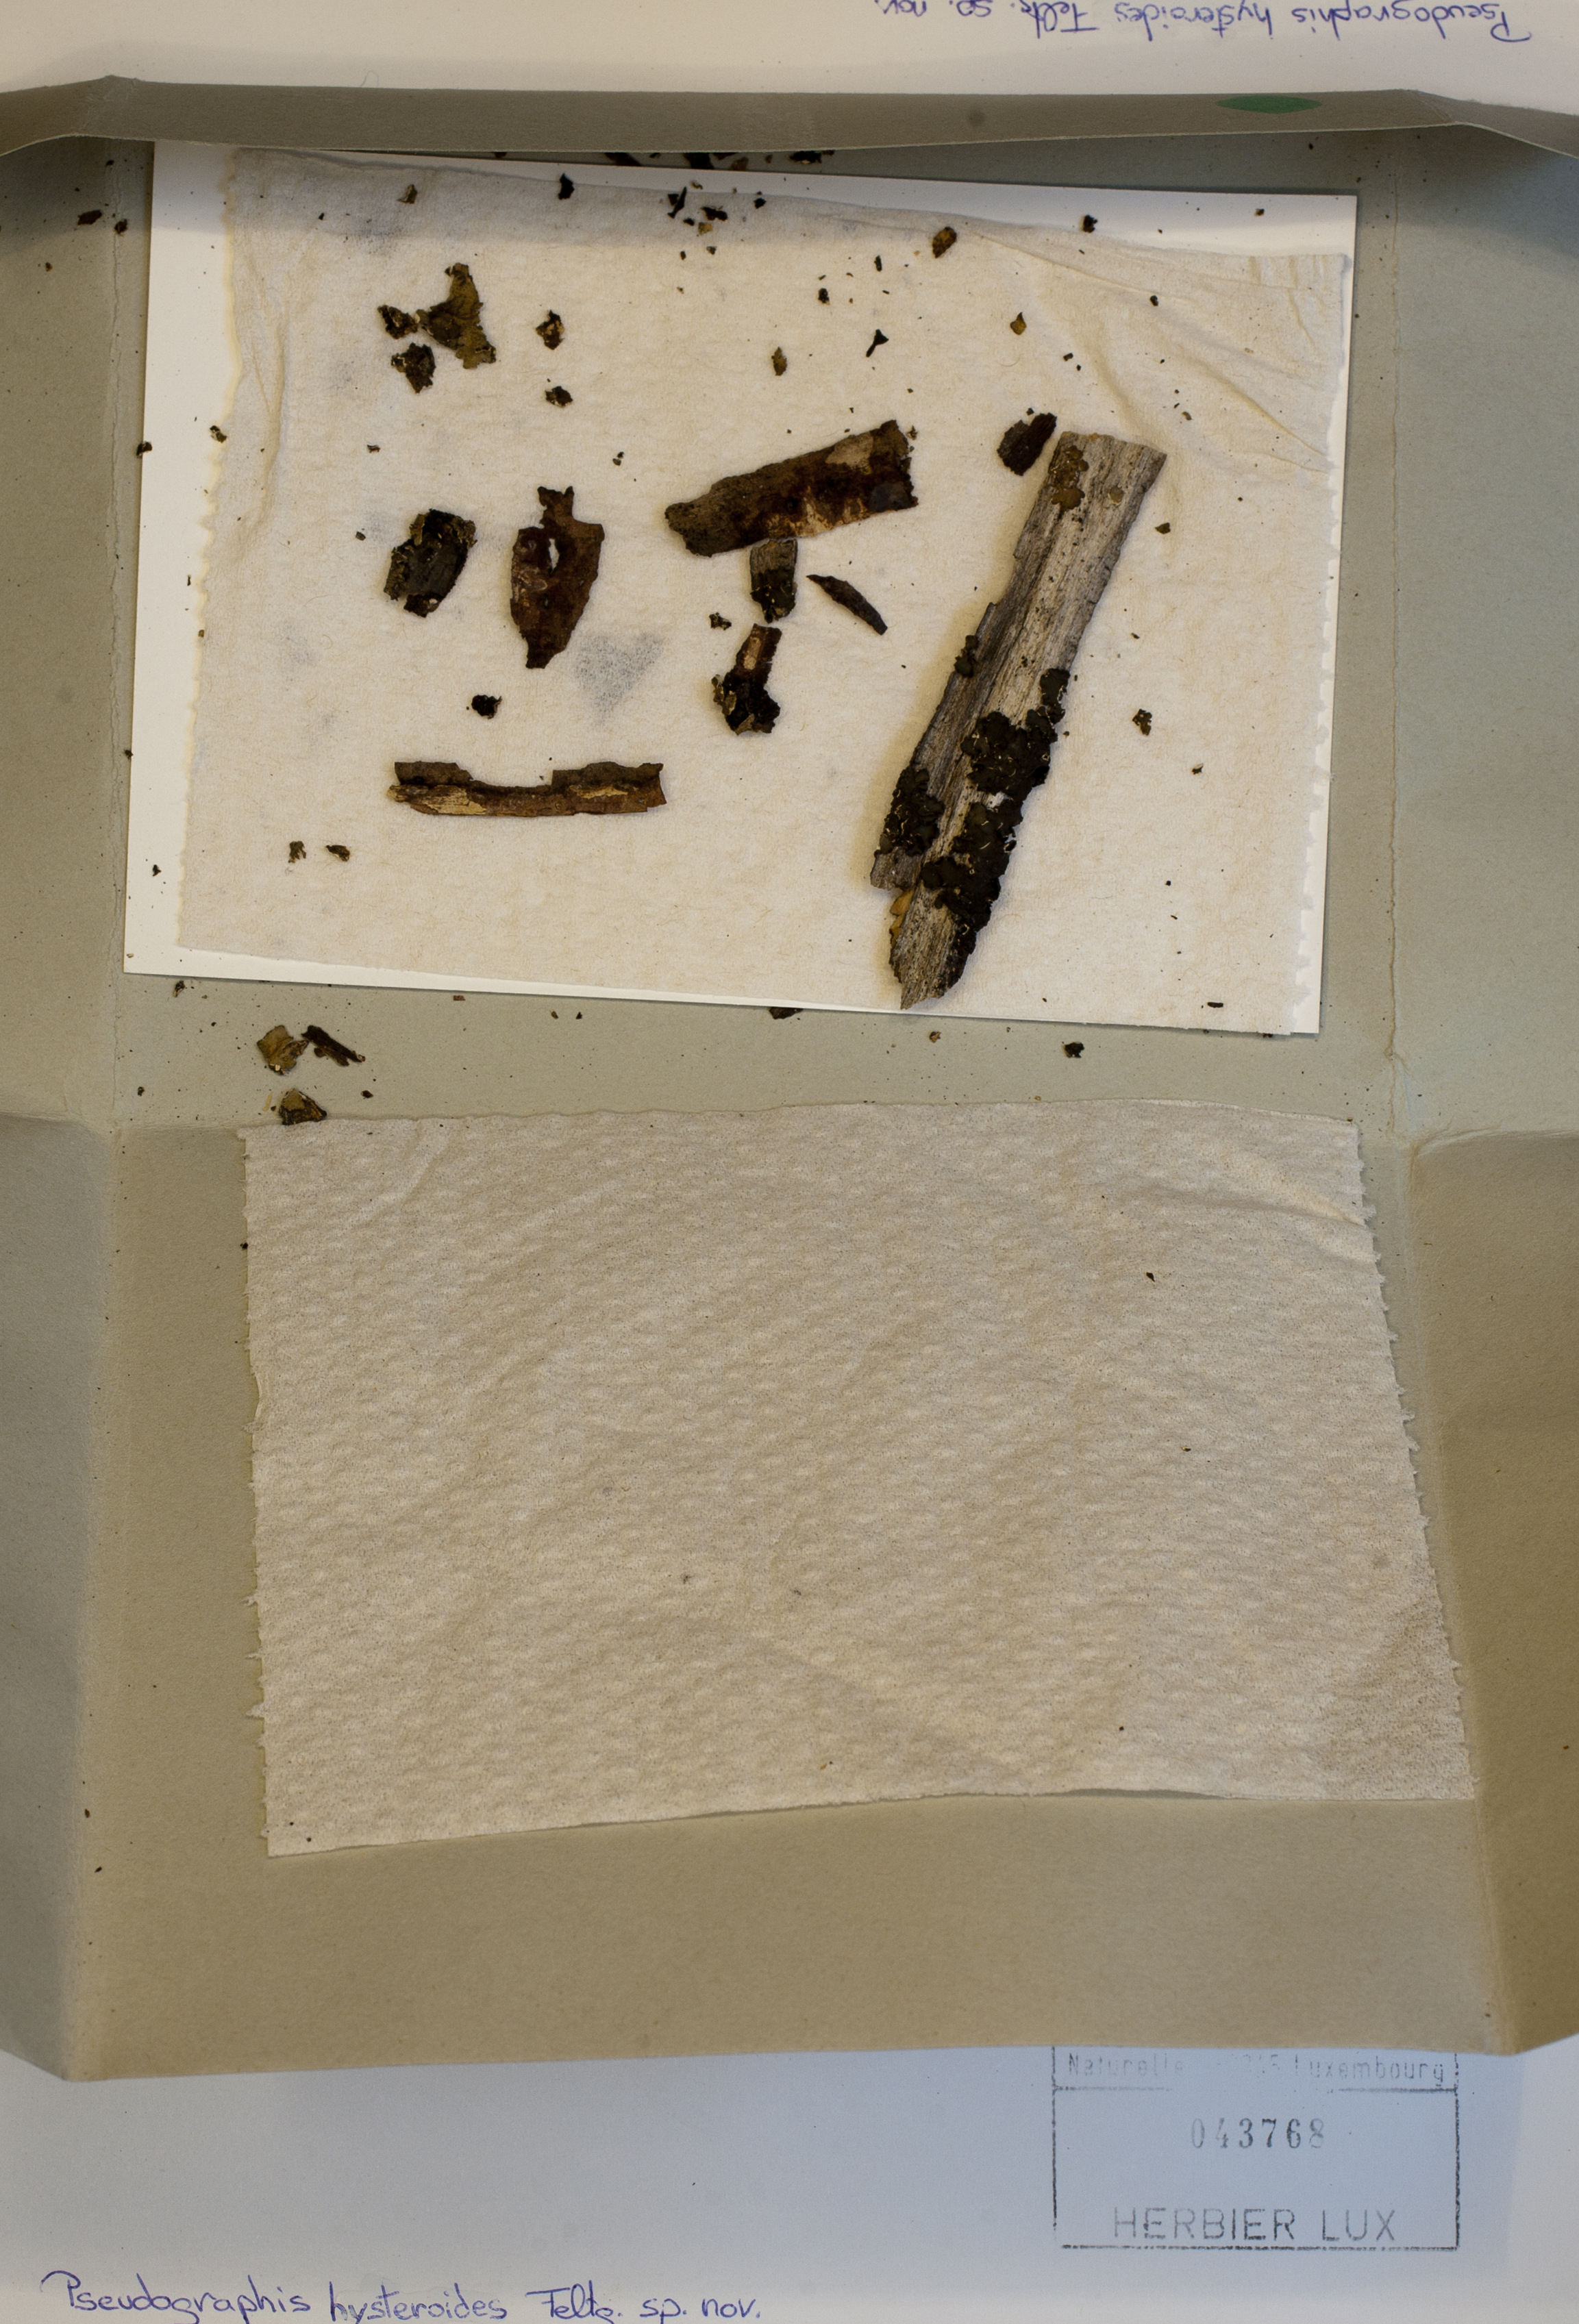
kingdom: Fungi
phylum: Ascomycota
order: Triblidiales
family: Triblidiaceae
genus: Pseudographis
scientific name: Pseudographis hysterioides
